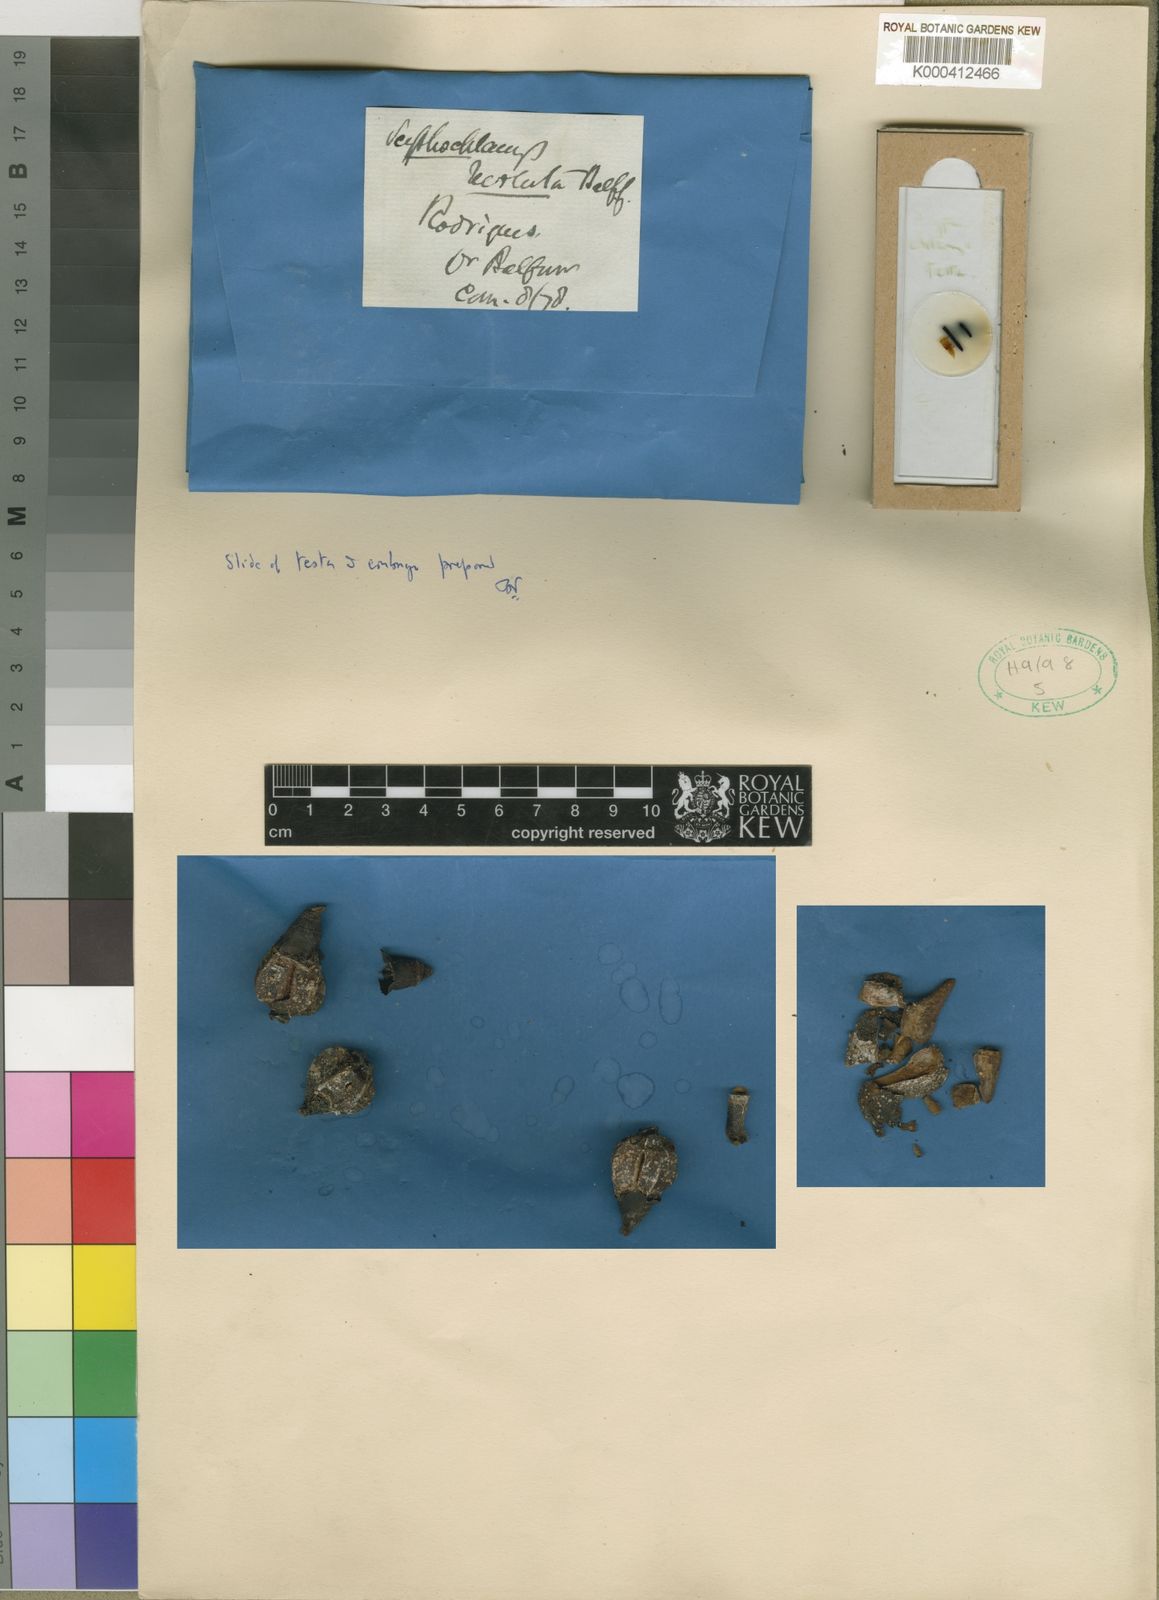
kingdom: Plantae
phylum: Tracheophyta
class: Magnoliopsida
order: Gentianales
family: Rubiaceae
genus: Pyrostria
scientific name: Pyrostria revoluta
